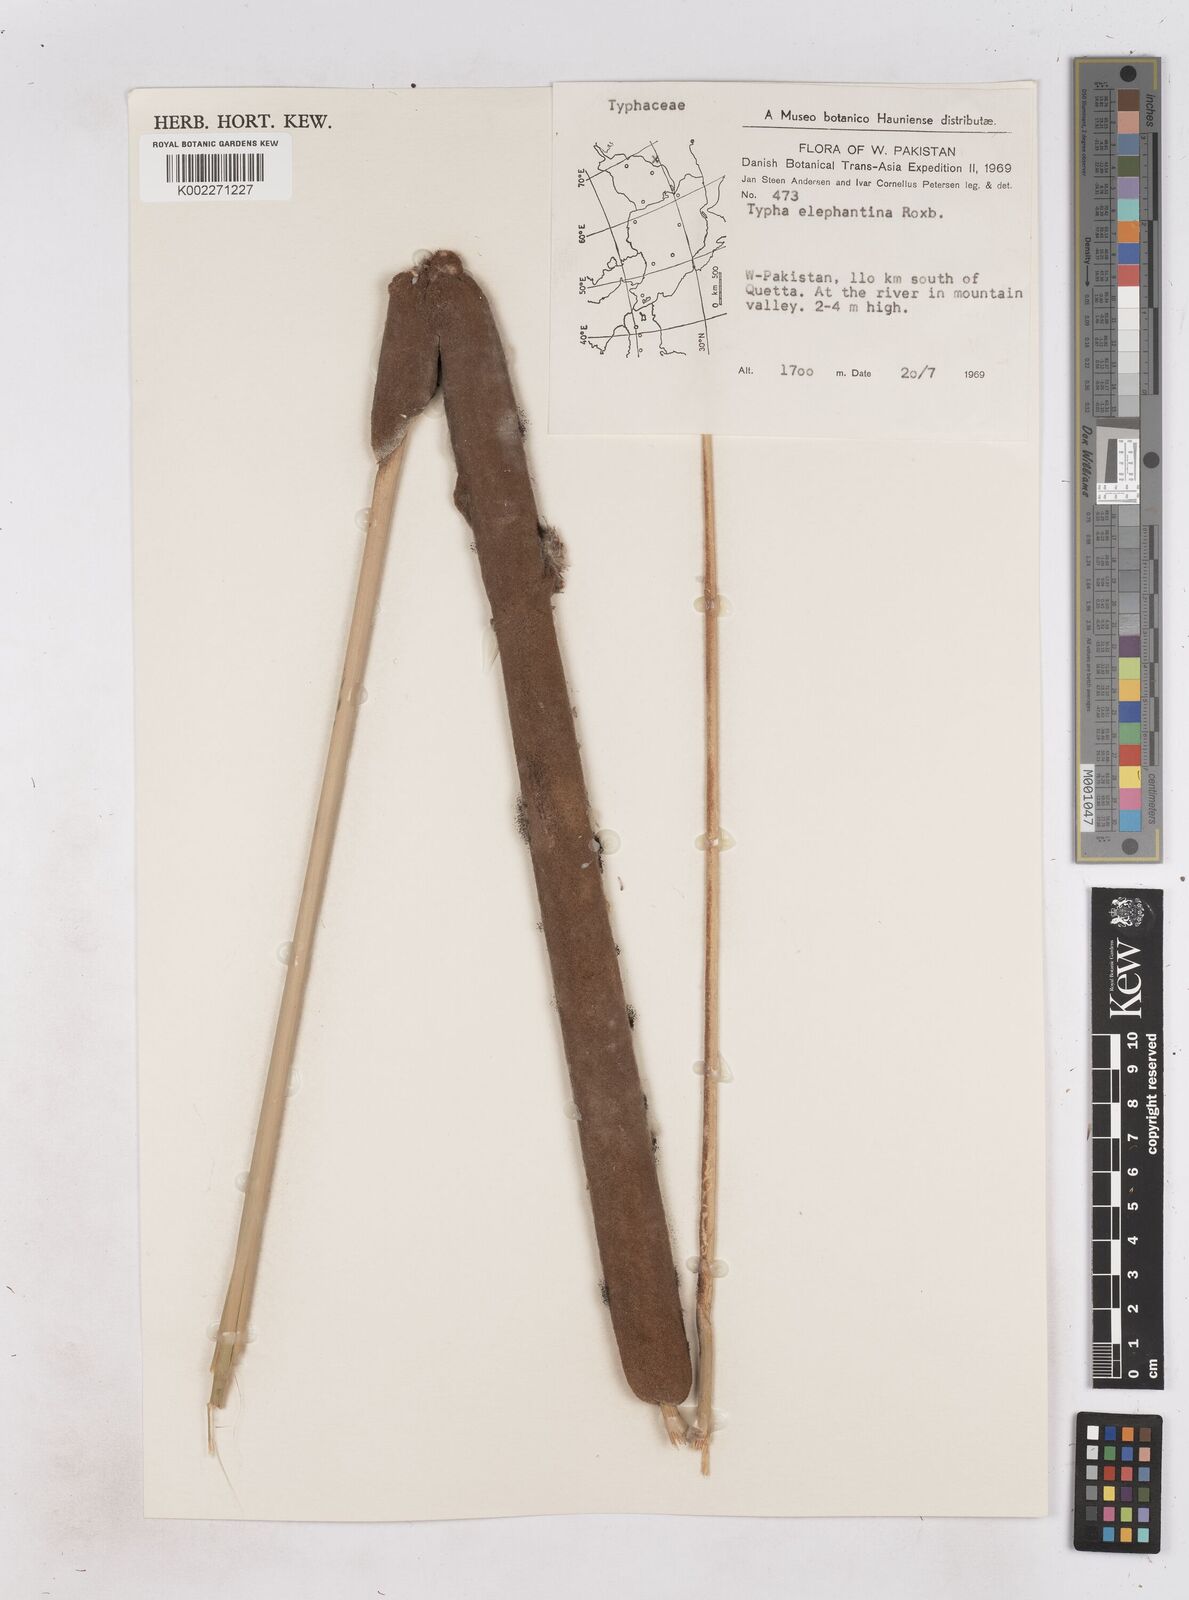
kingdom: Plantae
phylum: Tracheophyta
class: Liliopsida
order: Poales
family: Typhaceae
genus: Typha
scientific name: Typha elephantina
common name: Indian reed-grass
